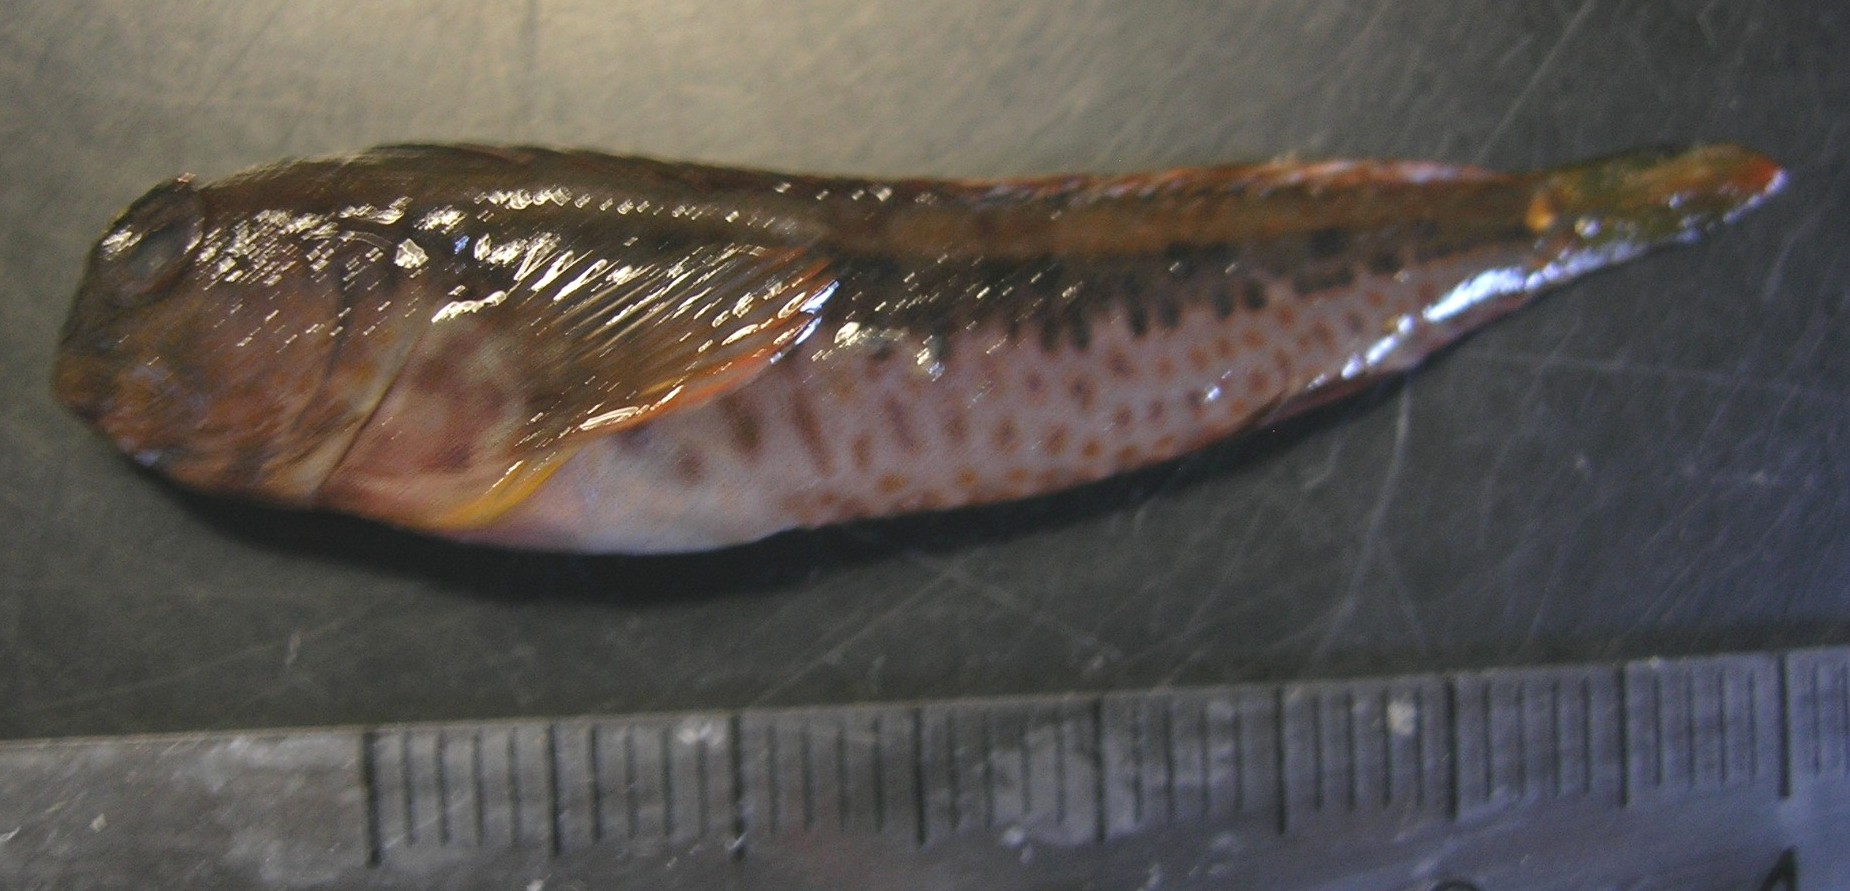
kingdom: Animalia
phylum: Chordata
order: Perciformes
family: Blenniidae
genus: Parablennius
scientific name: Parablennius pilicornis
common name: Ringneck blenny
